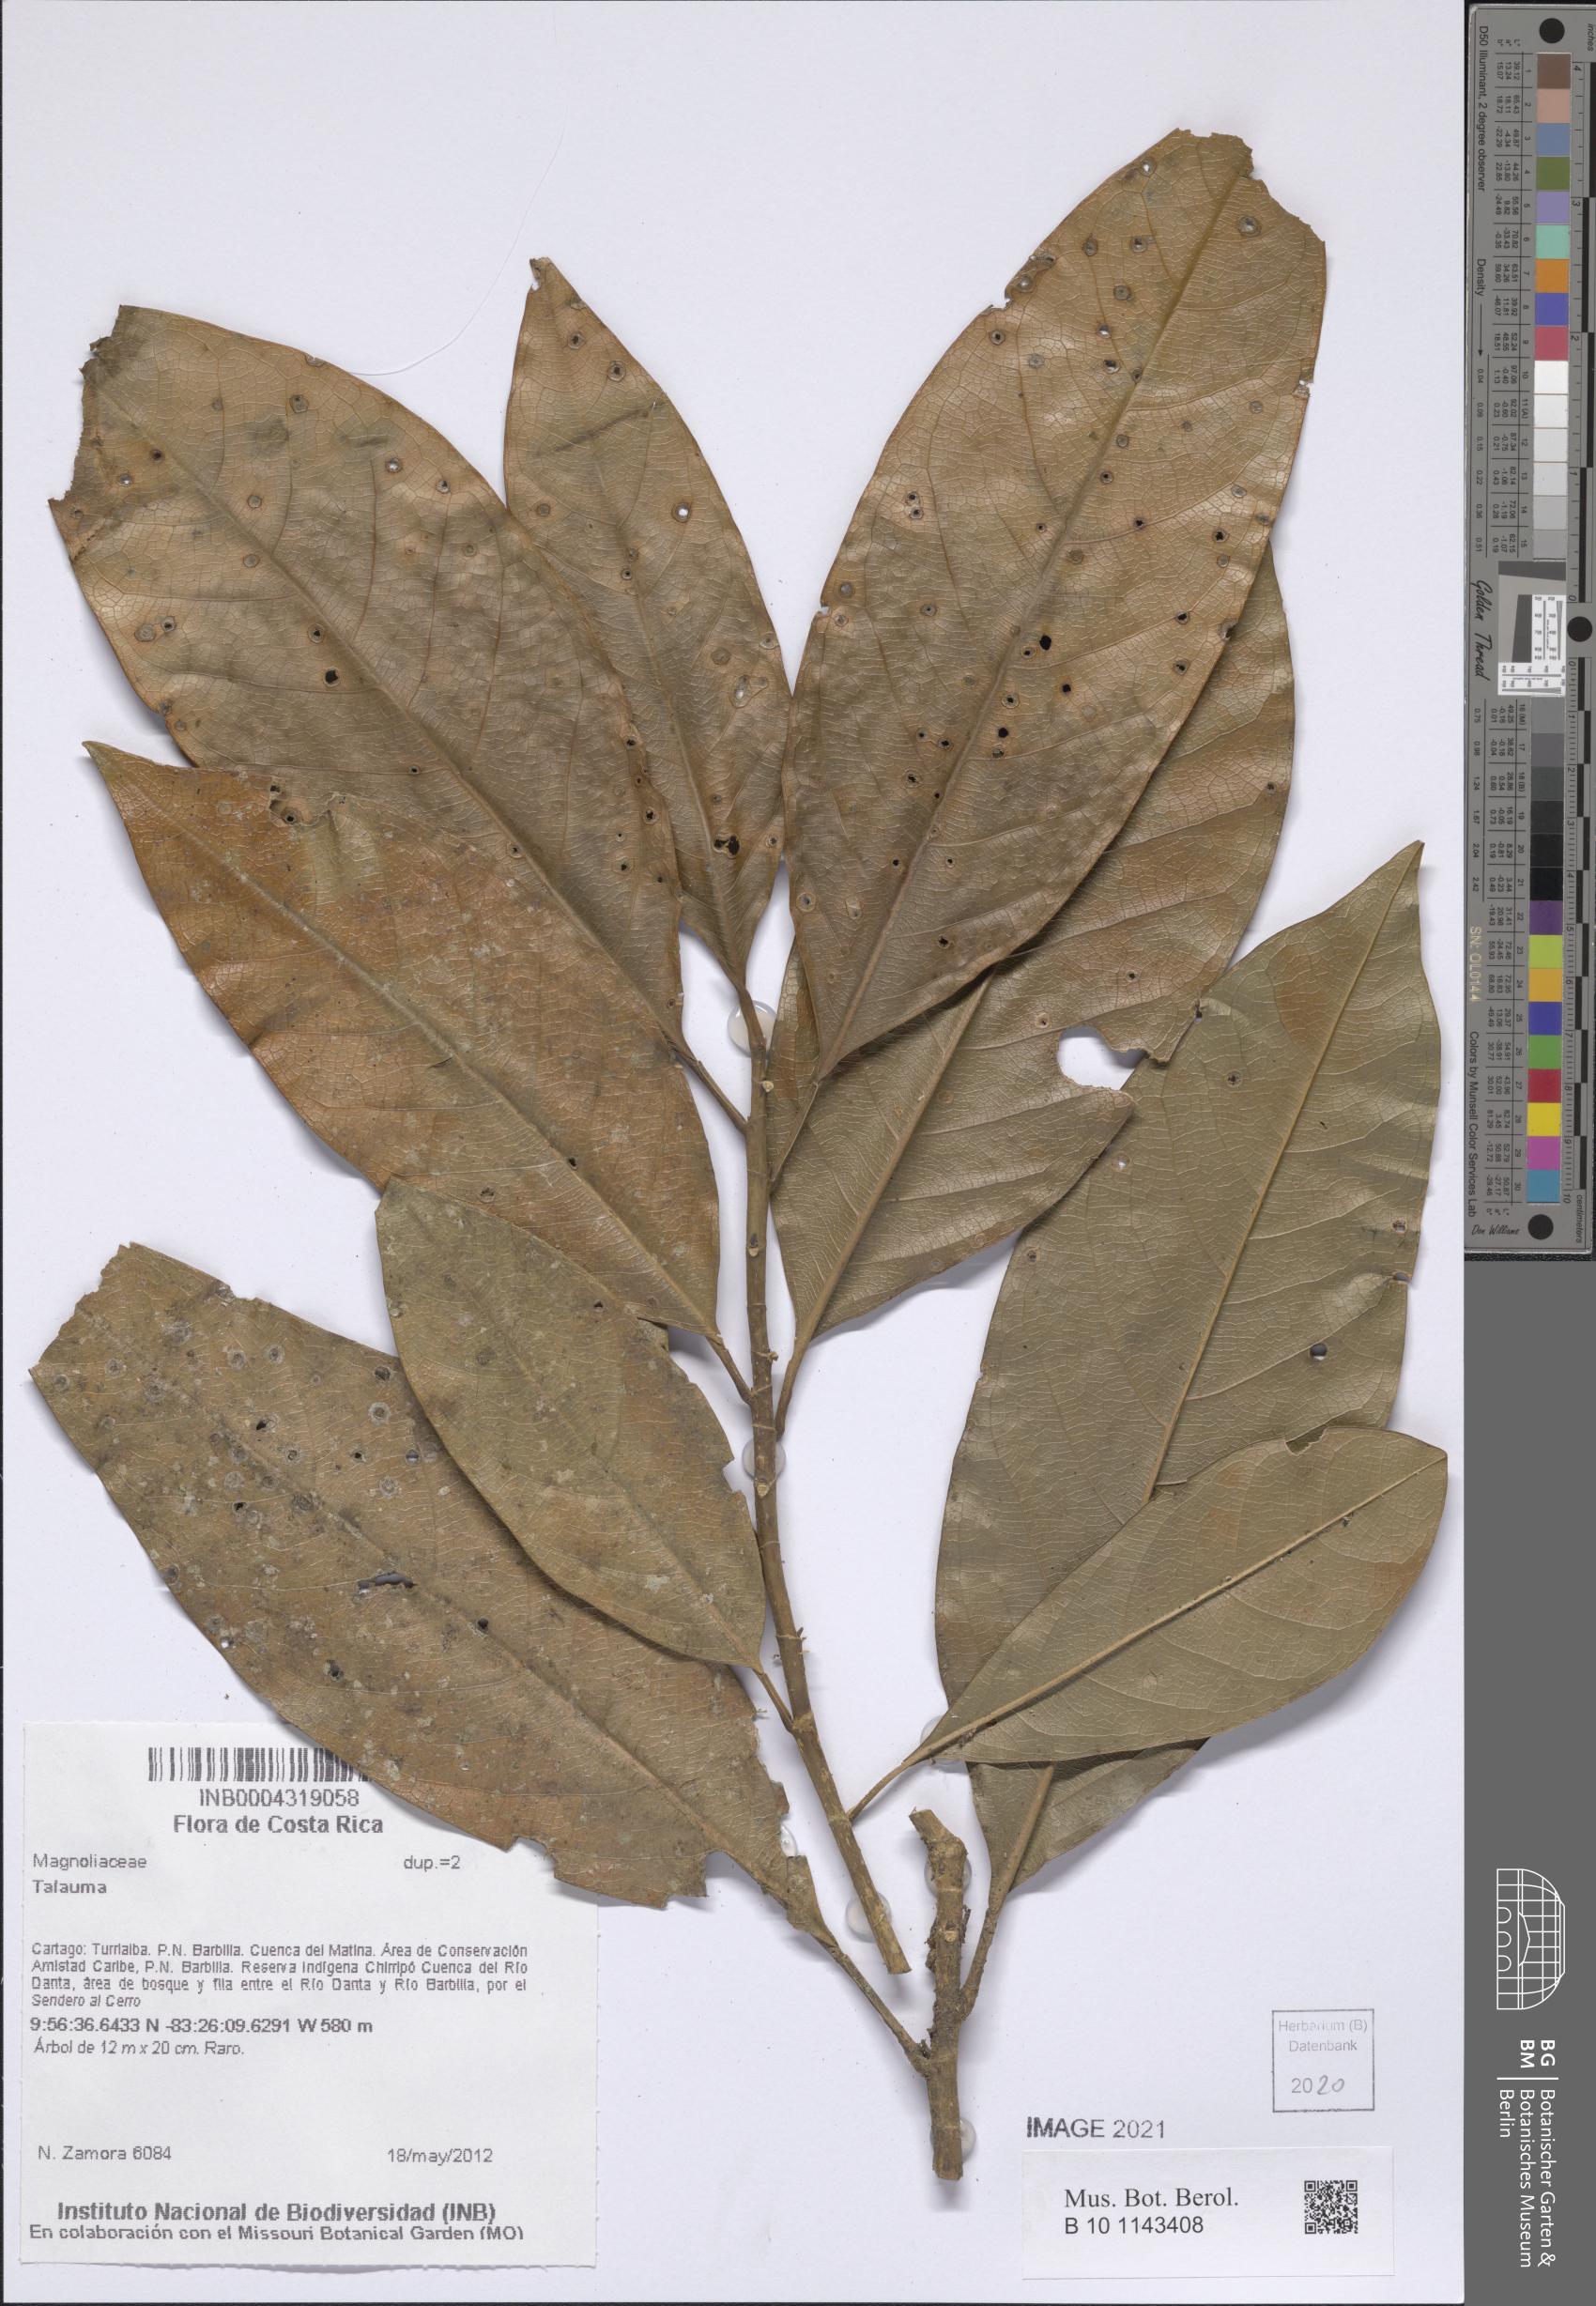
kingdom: Plantae
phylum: Tracheophyta
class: Magnoliopsida
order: Magnoliales
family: Magnoliaceae
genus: Magnolia
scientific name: Magnolia Talauma spec
